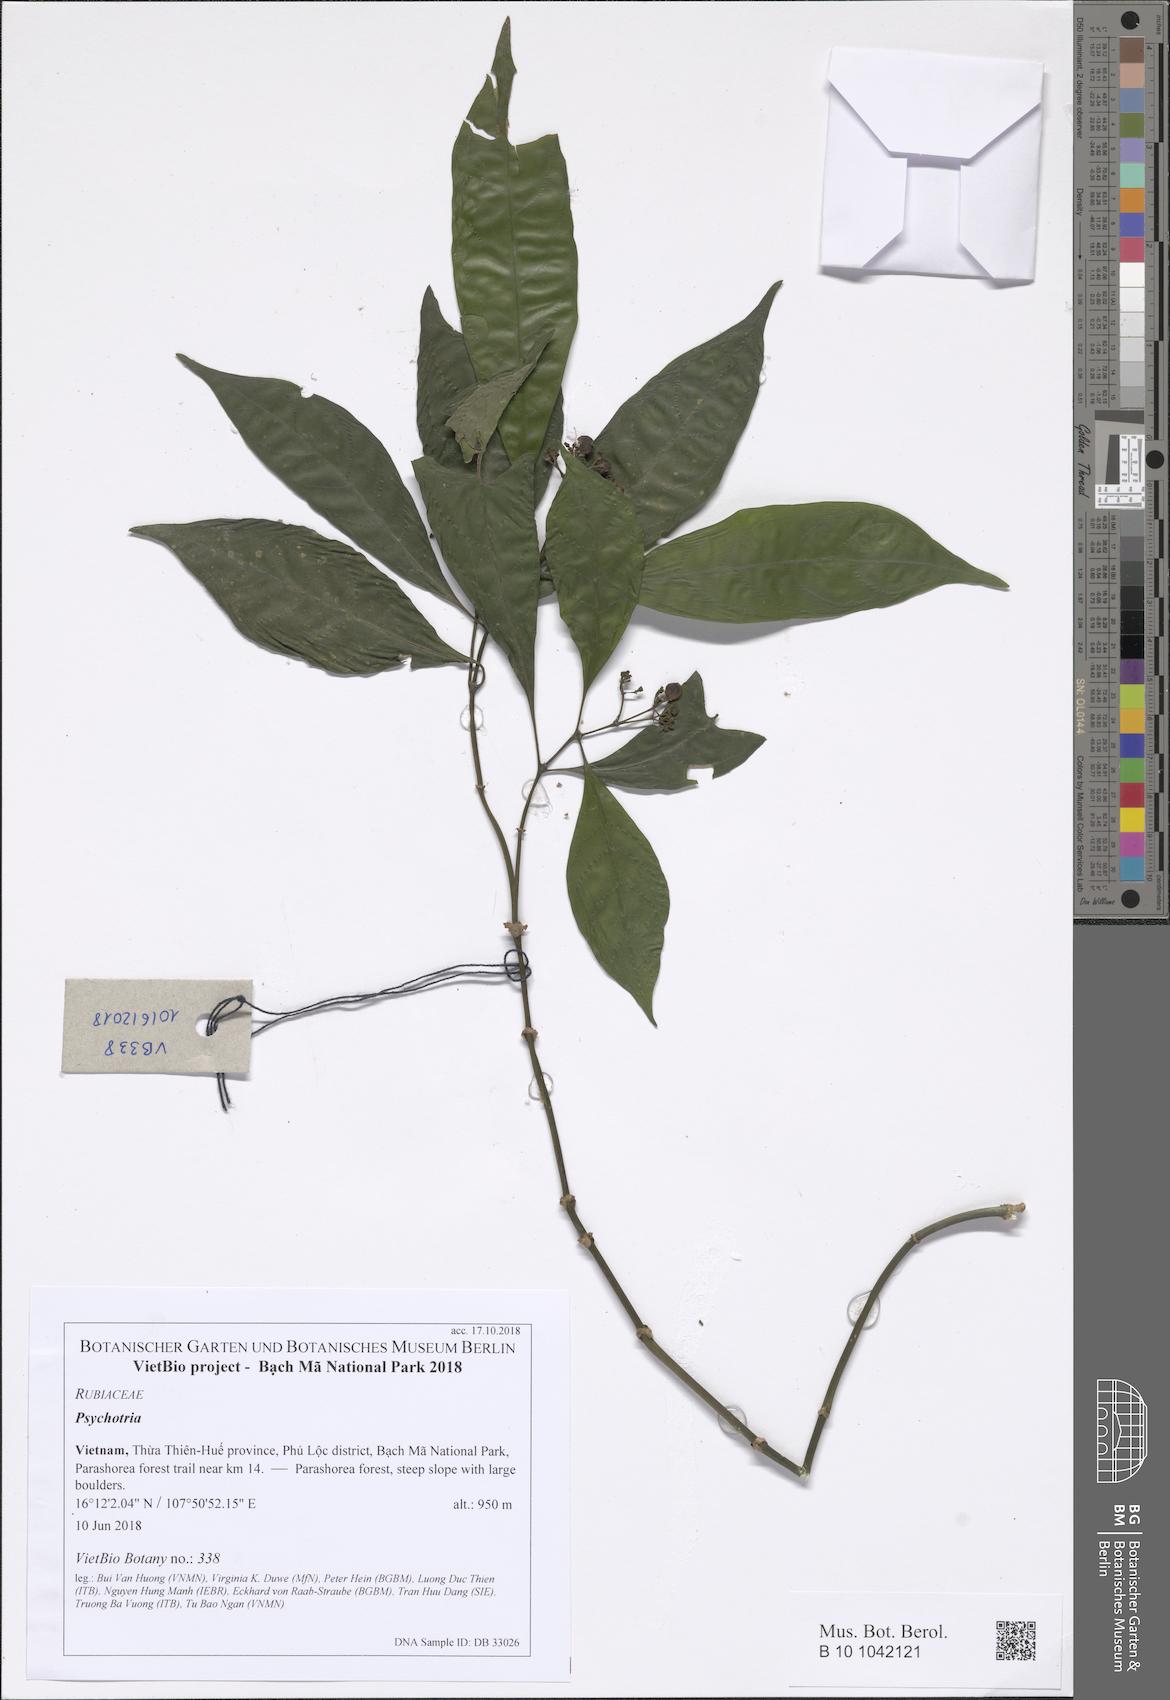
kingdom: Plantae
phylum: Tracheophyta
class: Magnoliopsida
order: Gentianales
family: Rubiaceae
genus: Psychotria
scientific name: Psychotria
